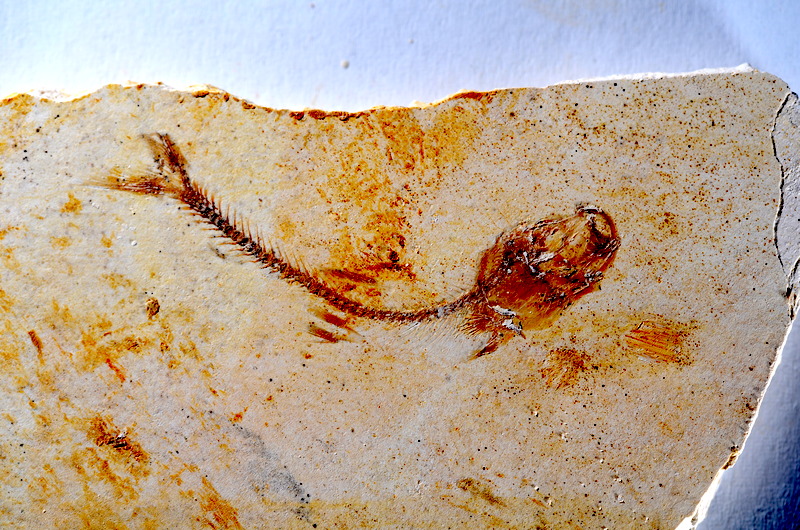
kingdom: Animalia
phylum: Chordata
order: Salmoniformes
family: Orthogonikleithridae
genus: Orthogonikleithrus
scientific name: Orthogonikleithrus hoelli
